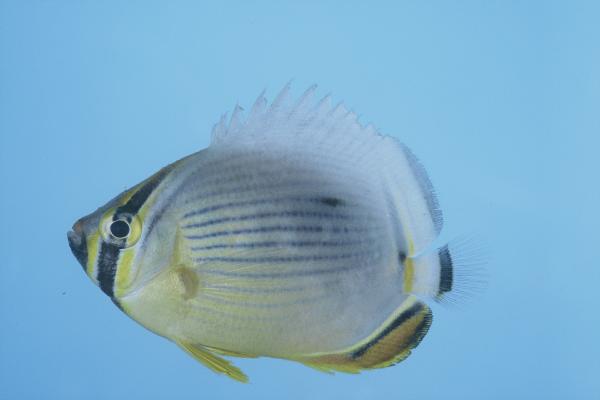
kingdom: Animalia
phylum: Chordata
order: Perciformes
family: Chaetodontidae
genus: Chaetodon
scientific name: Chaetodon trifasciatus
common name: Redfin butterflyfish
